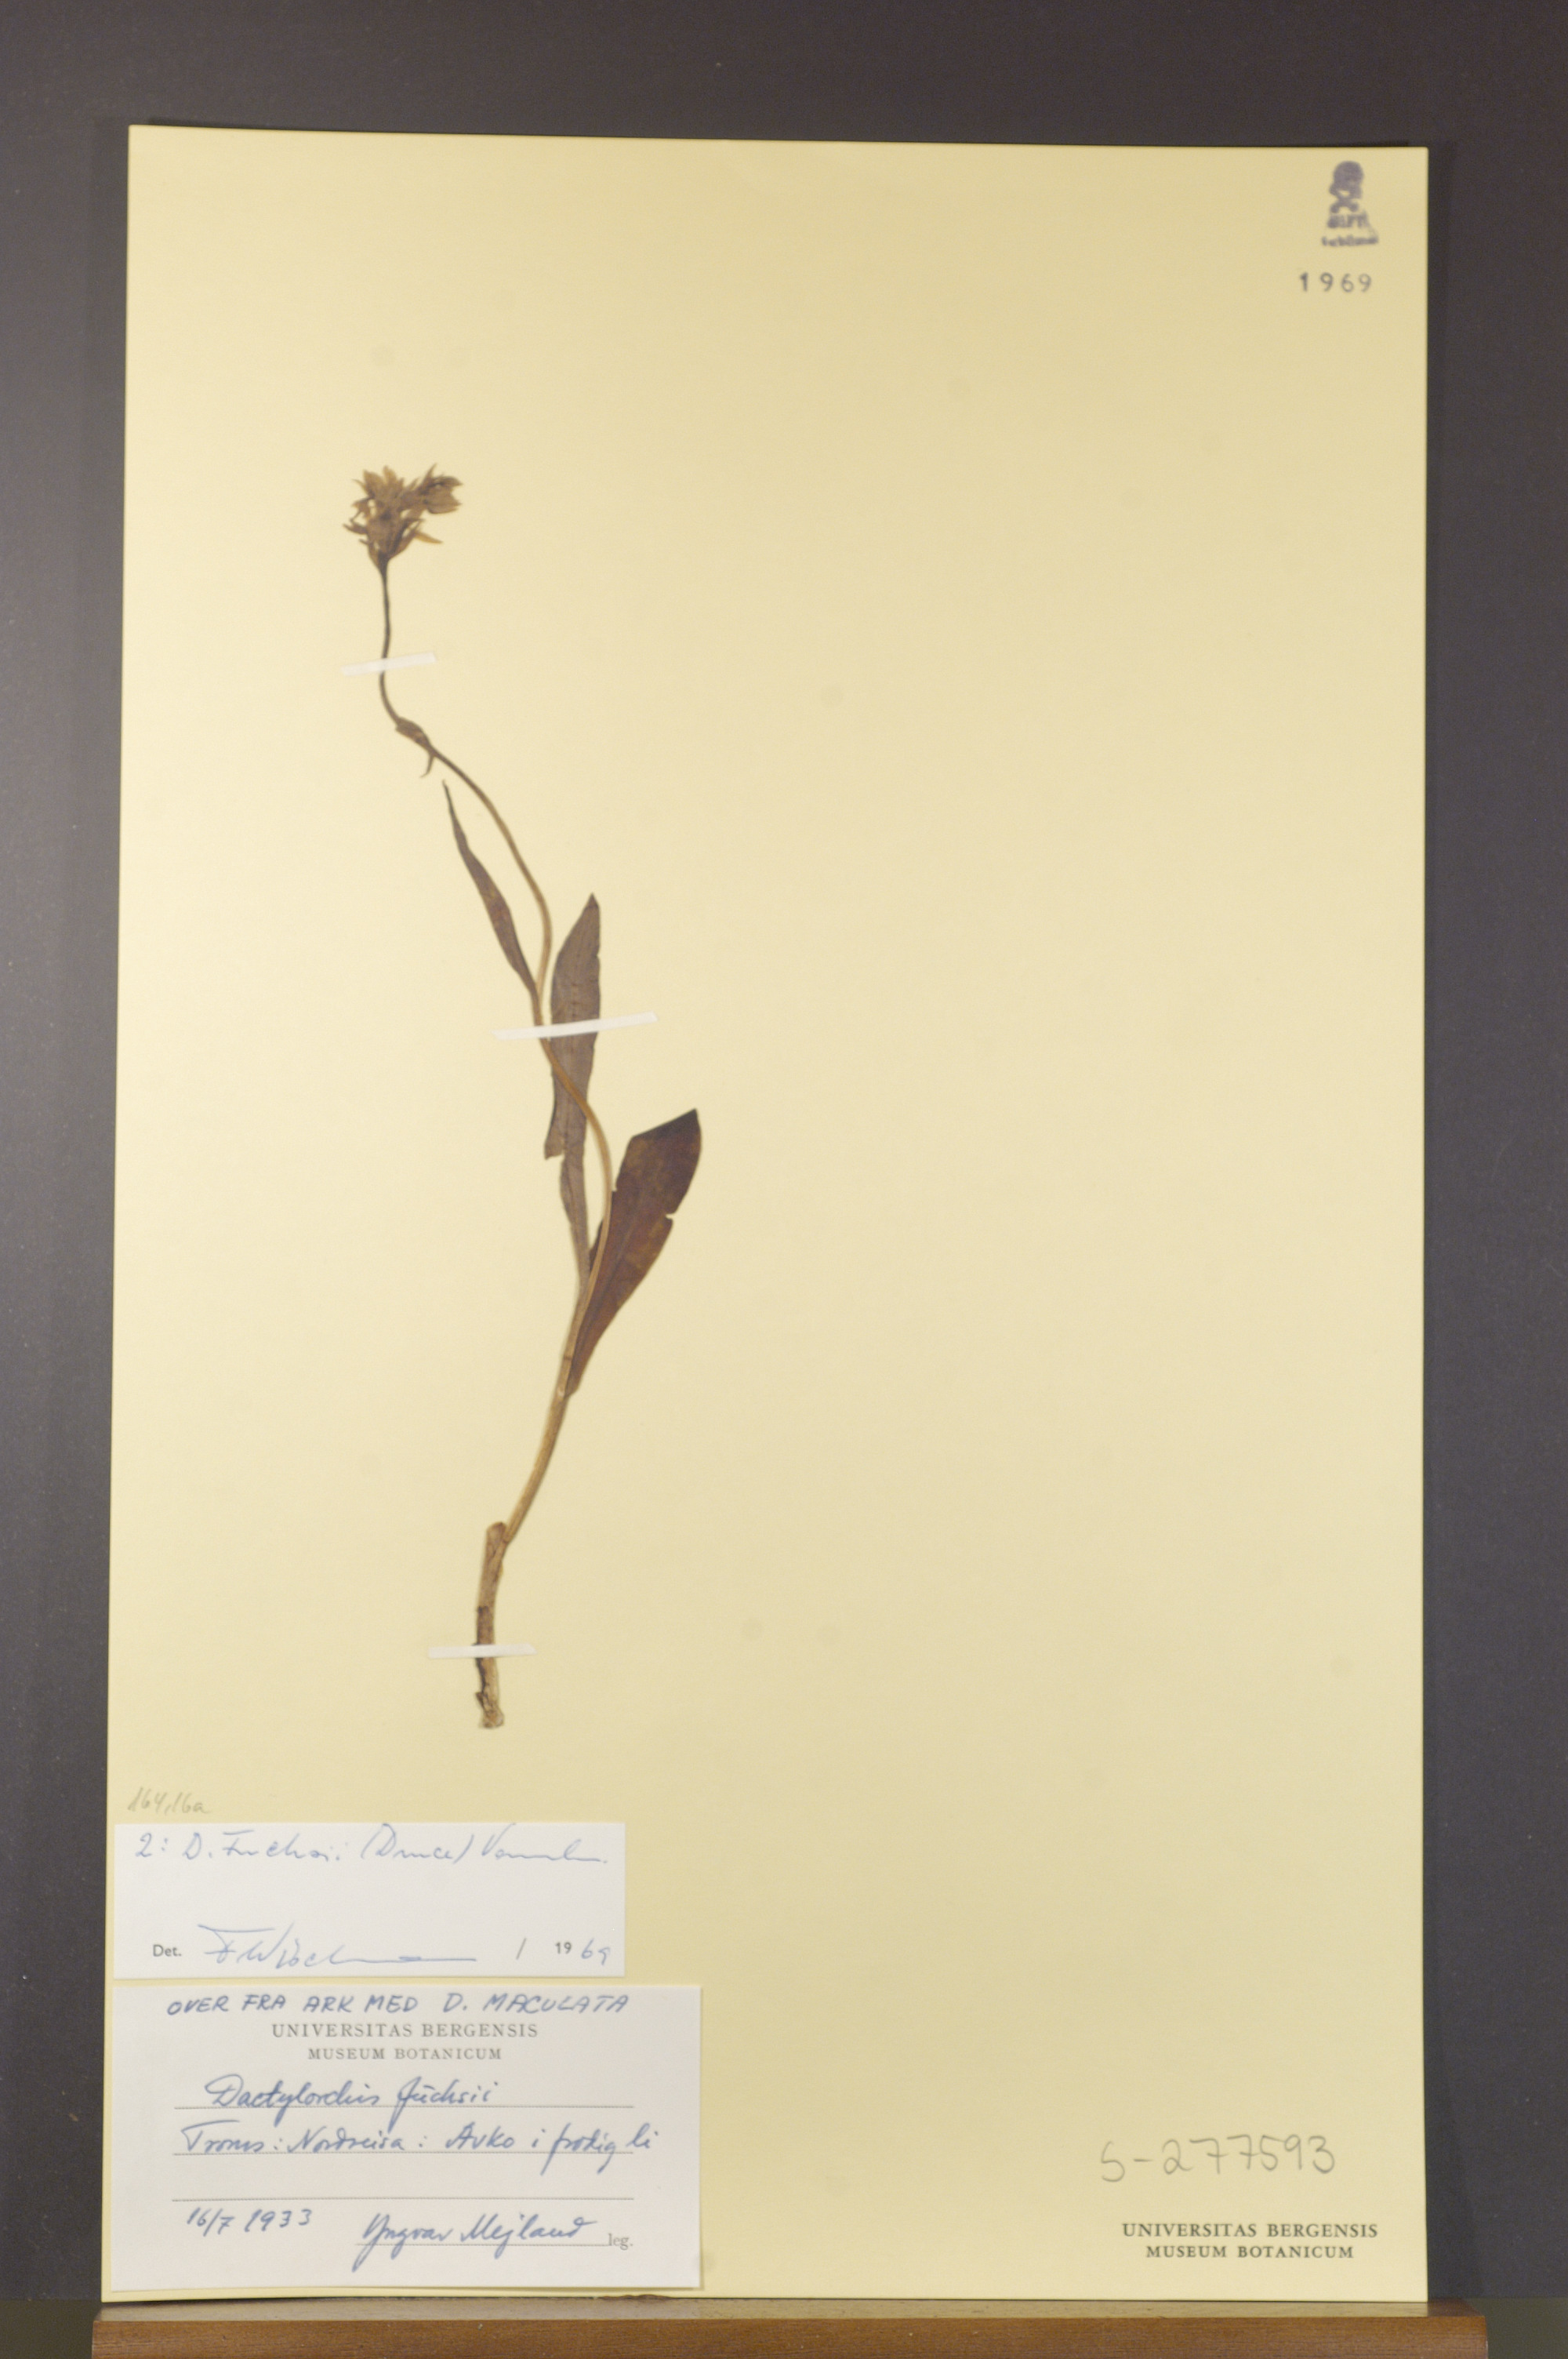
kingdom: Plantae
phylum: Tracheophyta
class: Liliopsida
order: Asparagales
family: Orchidaceae
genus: Dactylorhiza
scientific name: Dactylorhiza maculata
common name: Heath spotted-orchid
